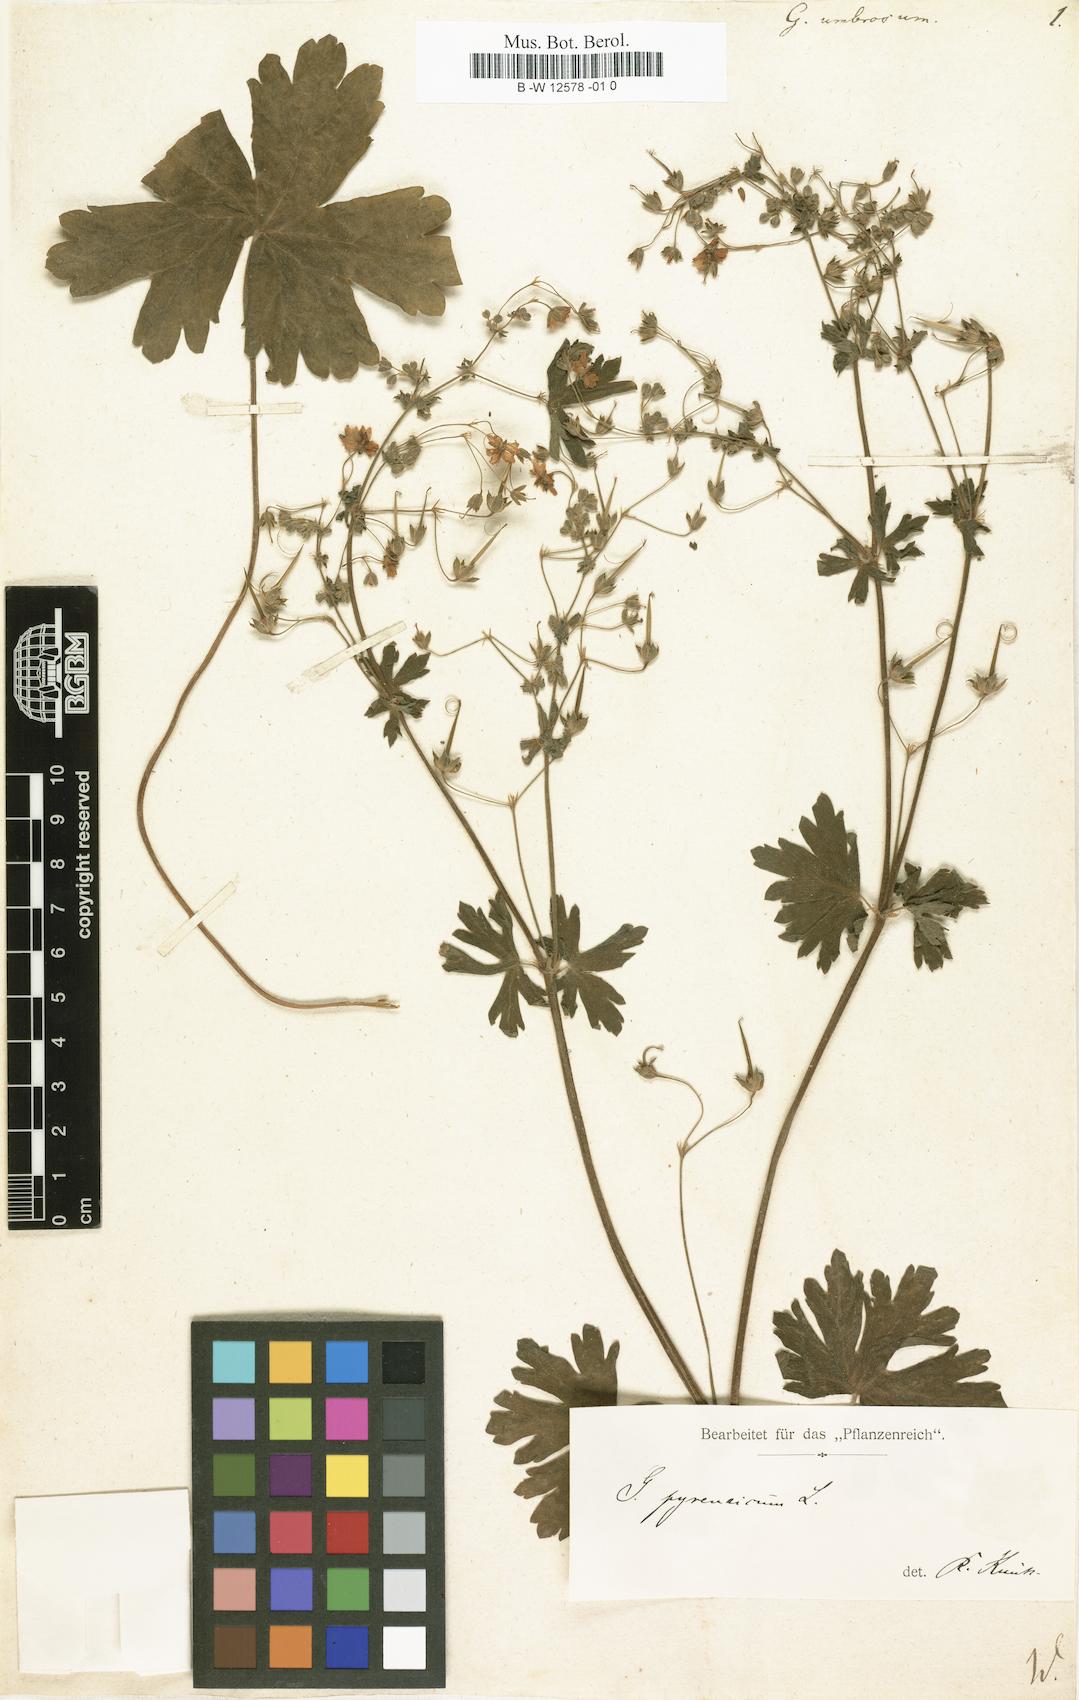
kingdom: Plantae
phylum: Tracheophyta
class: Magnoliopsida
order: Geraniales
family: Geraniaceae
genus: Geranium
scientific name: Geranium pyrenaicum
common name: Hedgerow crane's-bill
